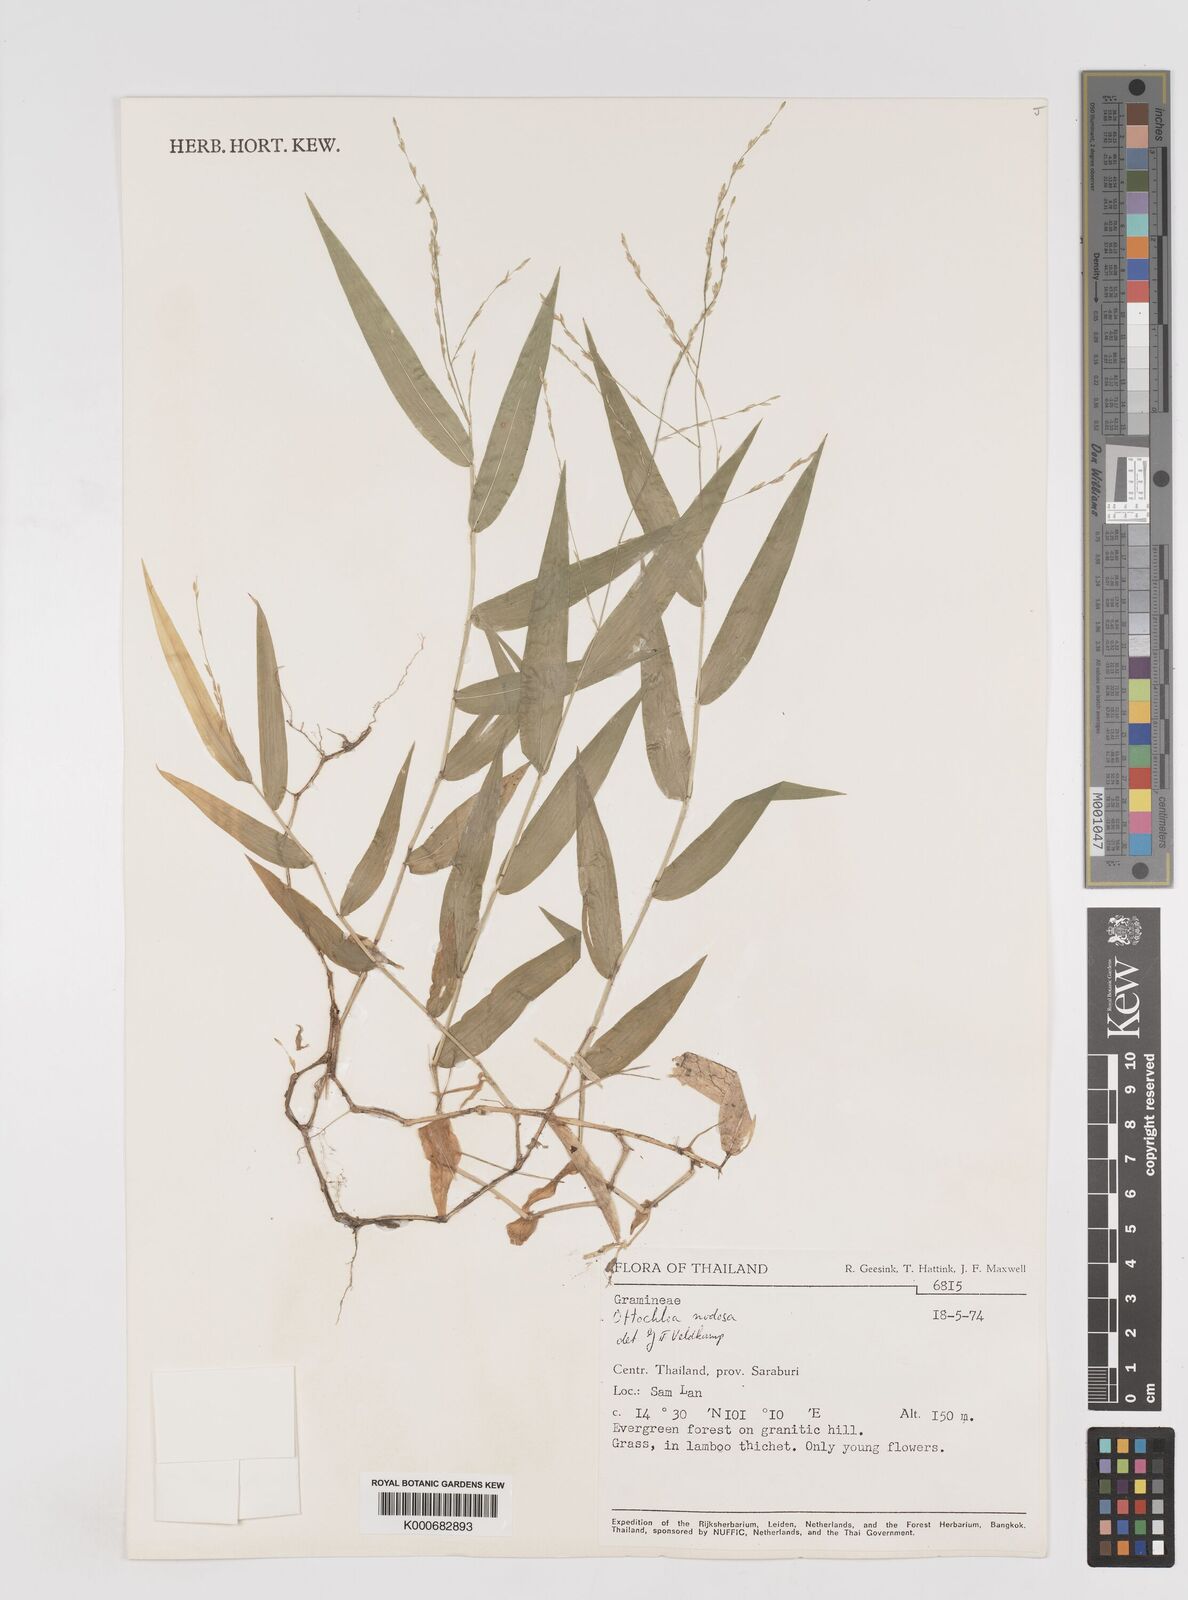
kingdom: Plantae
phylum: Tracheophyta
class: Liliopsida
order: Poales
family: Poaceae
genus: Ottochloa
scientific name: Ottochloa nodosa
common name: Slender-panic grass
